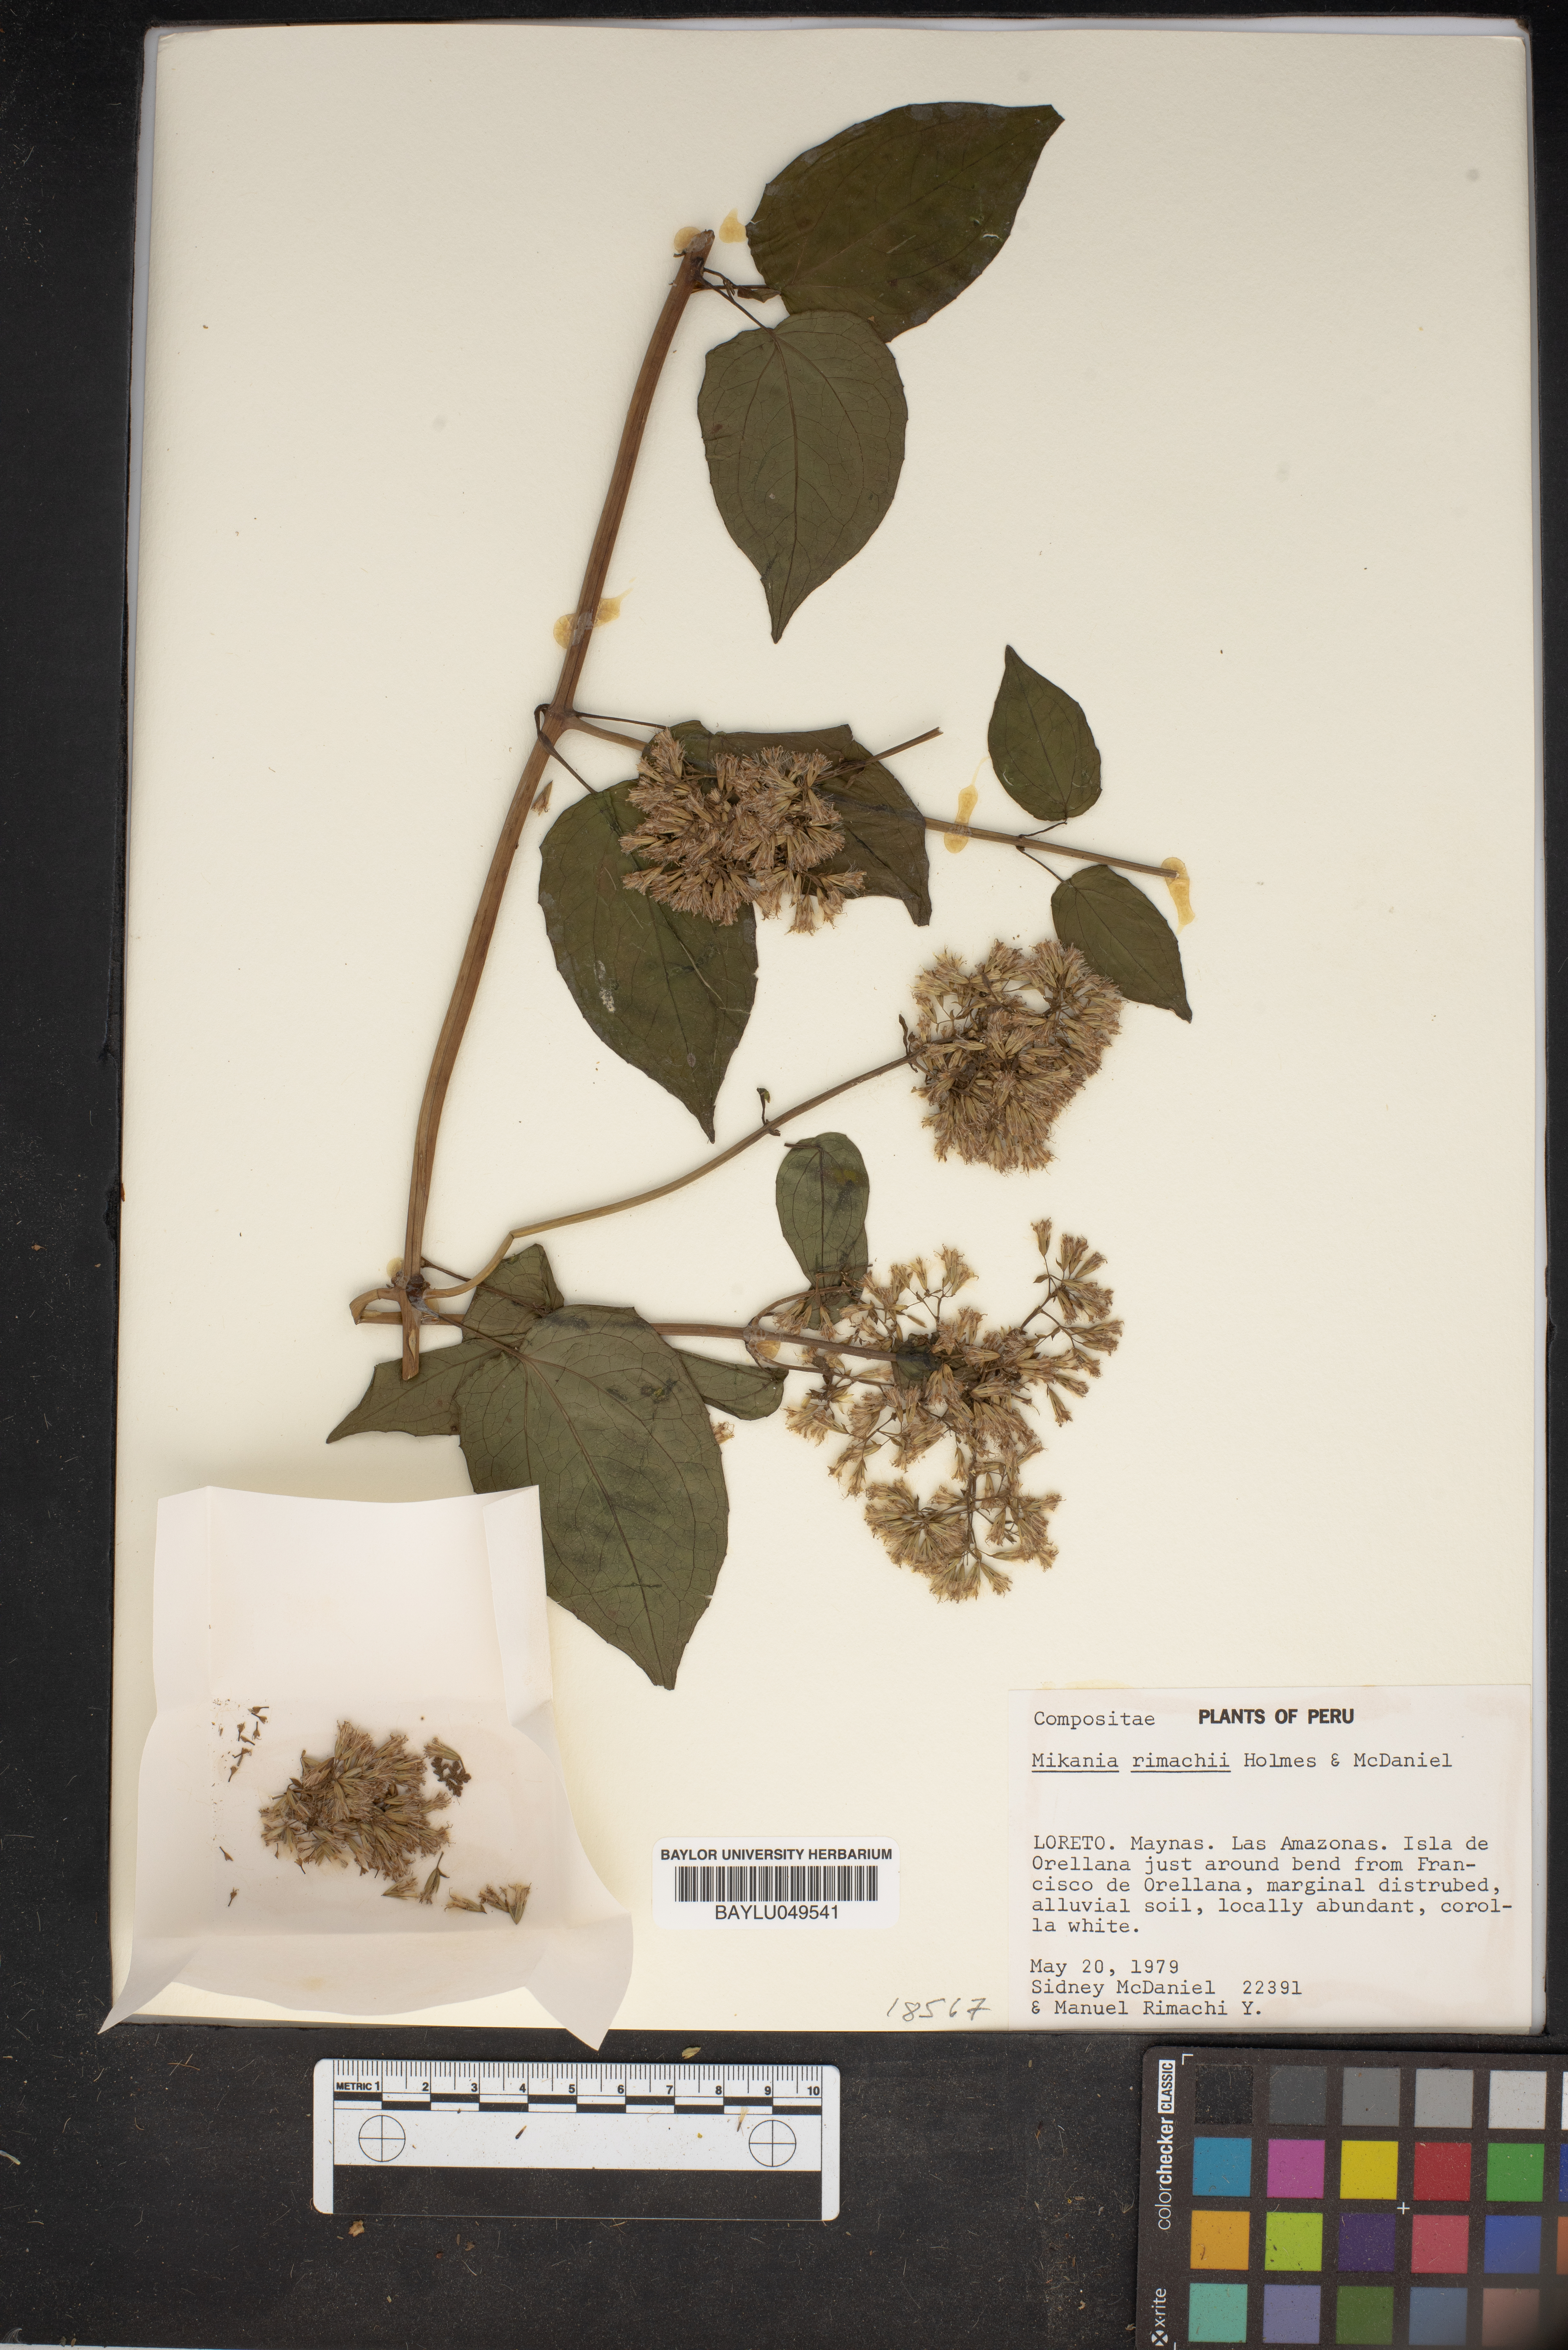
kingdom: Plantae
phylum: Tracheophyta
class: Magnoliopsida
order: Asterales
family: Asteraceae
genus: Mikania
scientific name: Mikania rimachii
